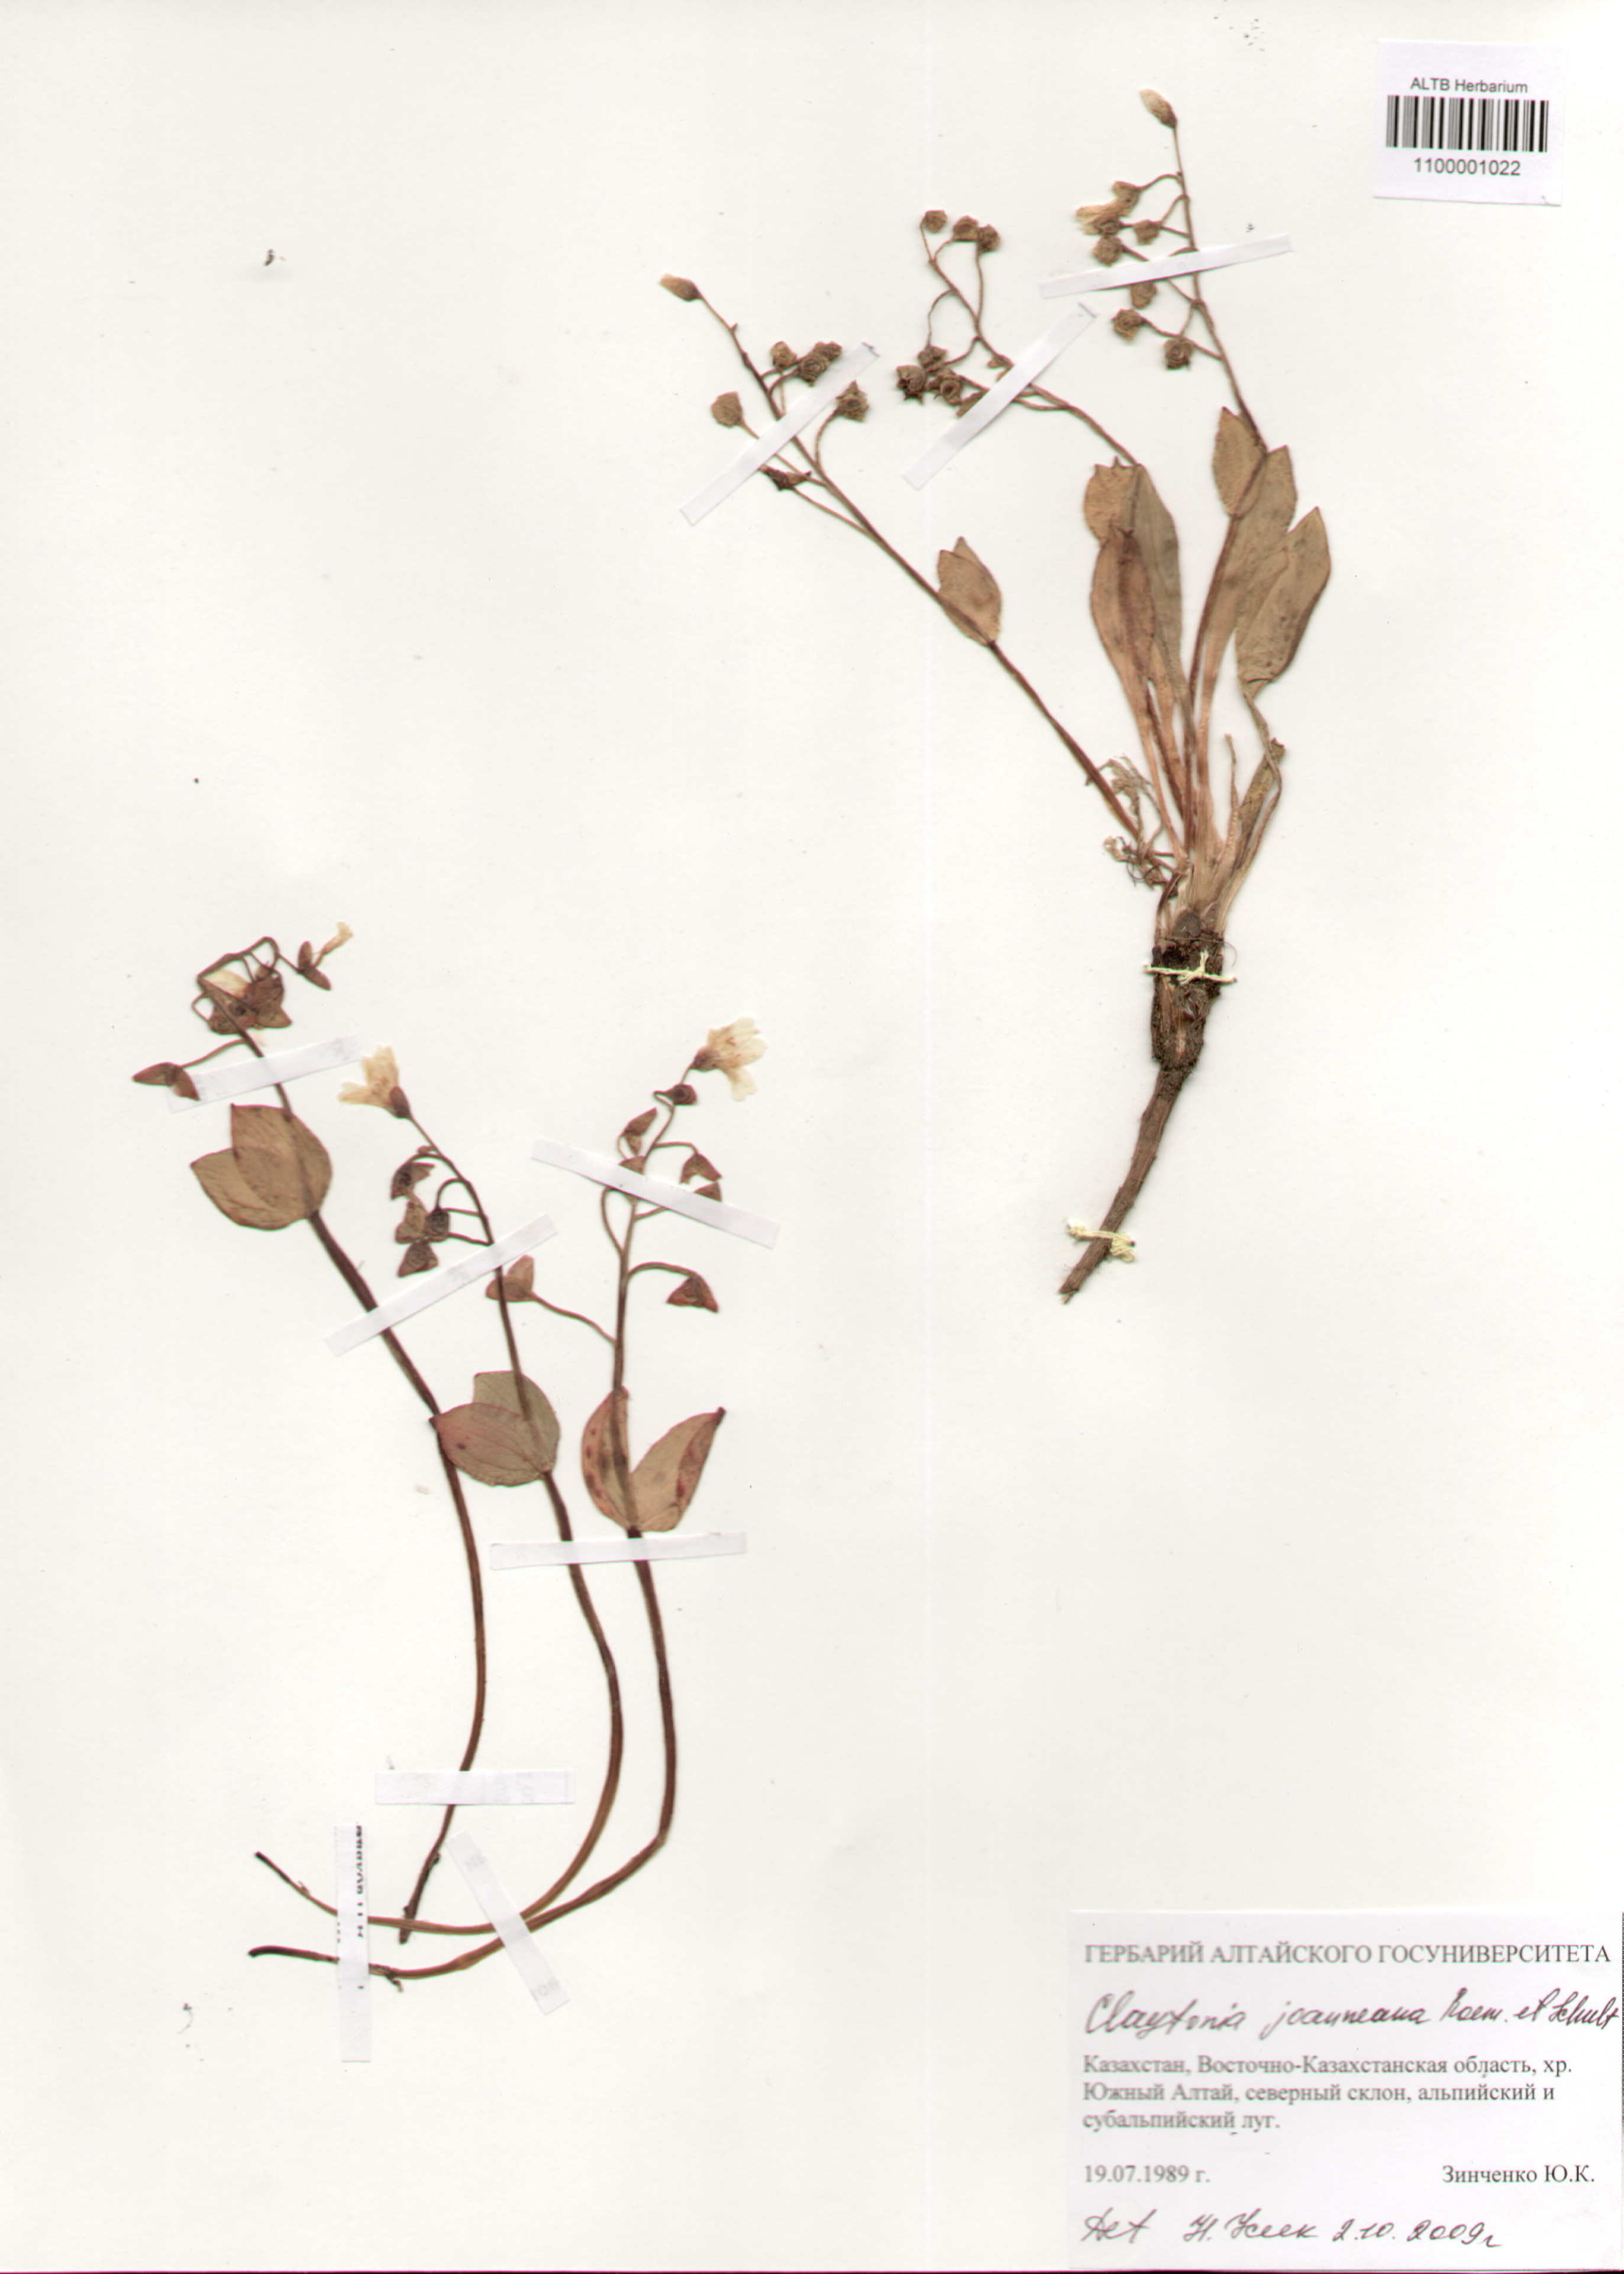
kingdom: Plantae
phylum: Tracheophyta
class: Magnoliopsida
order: Caryophyllales
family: Montiaceae
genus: Claytonia
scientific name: Claytonia joanneana
